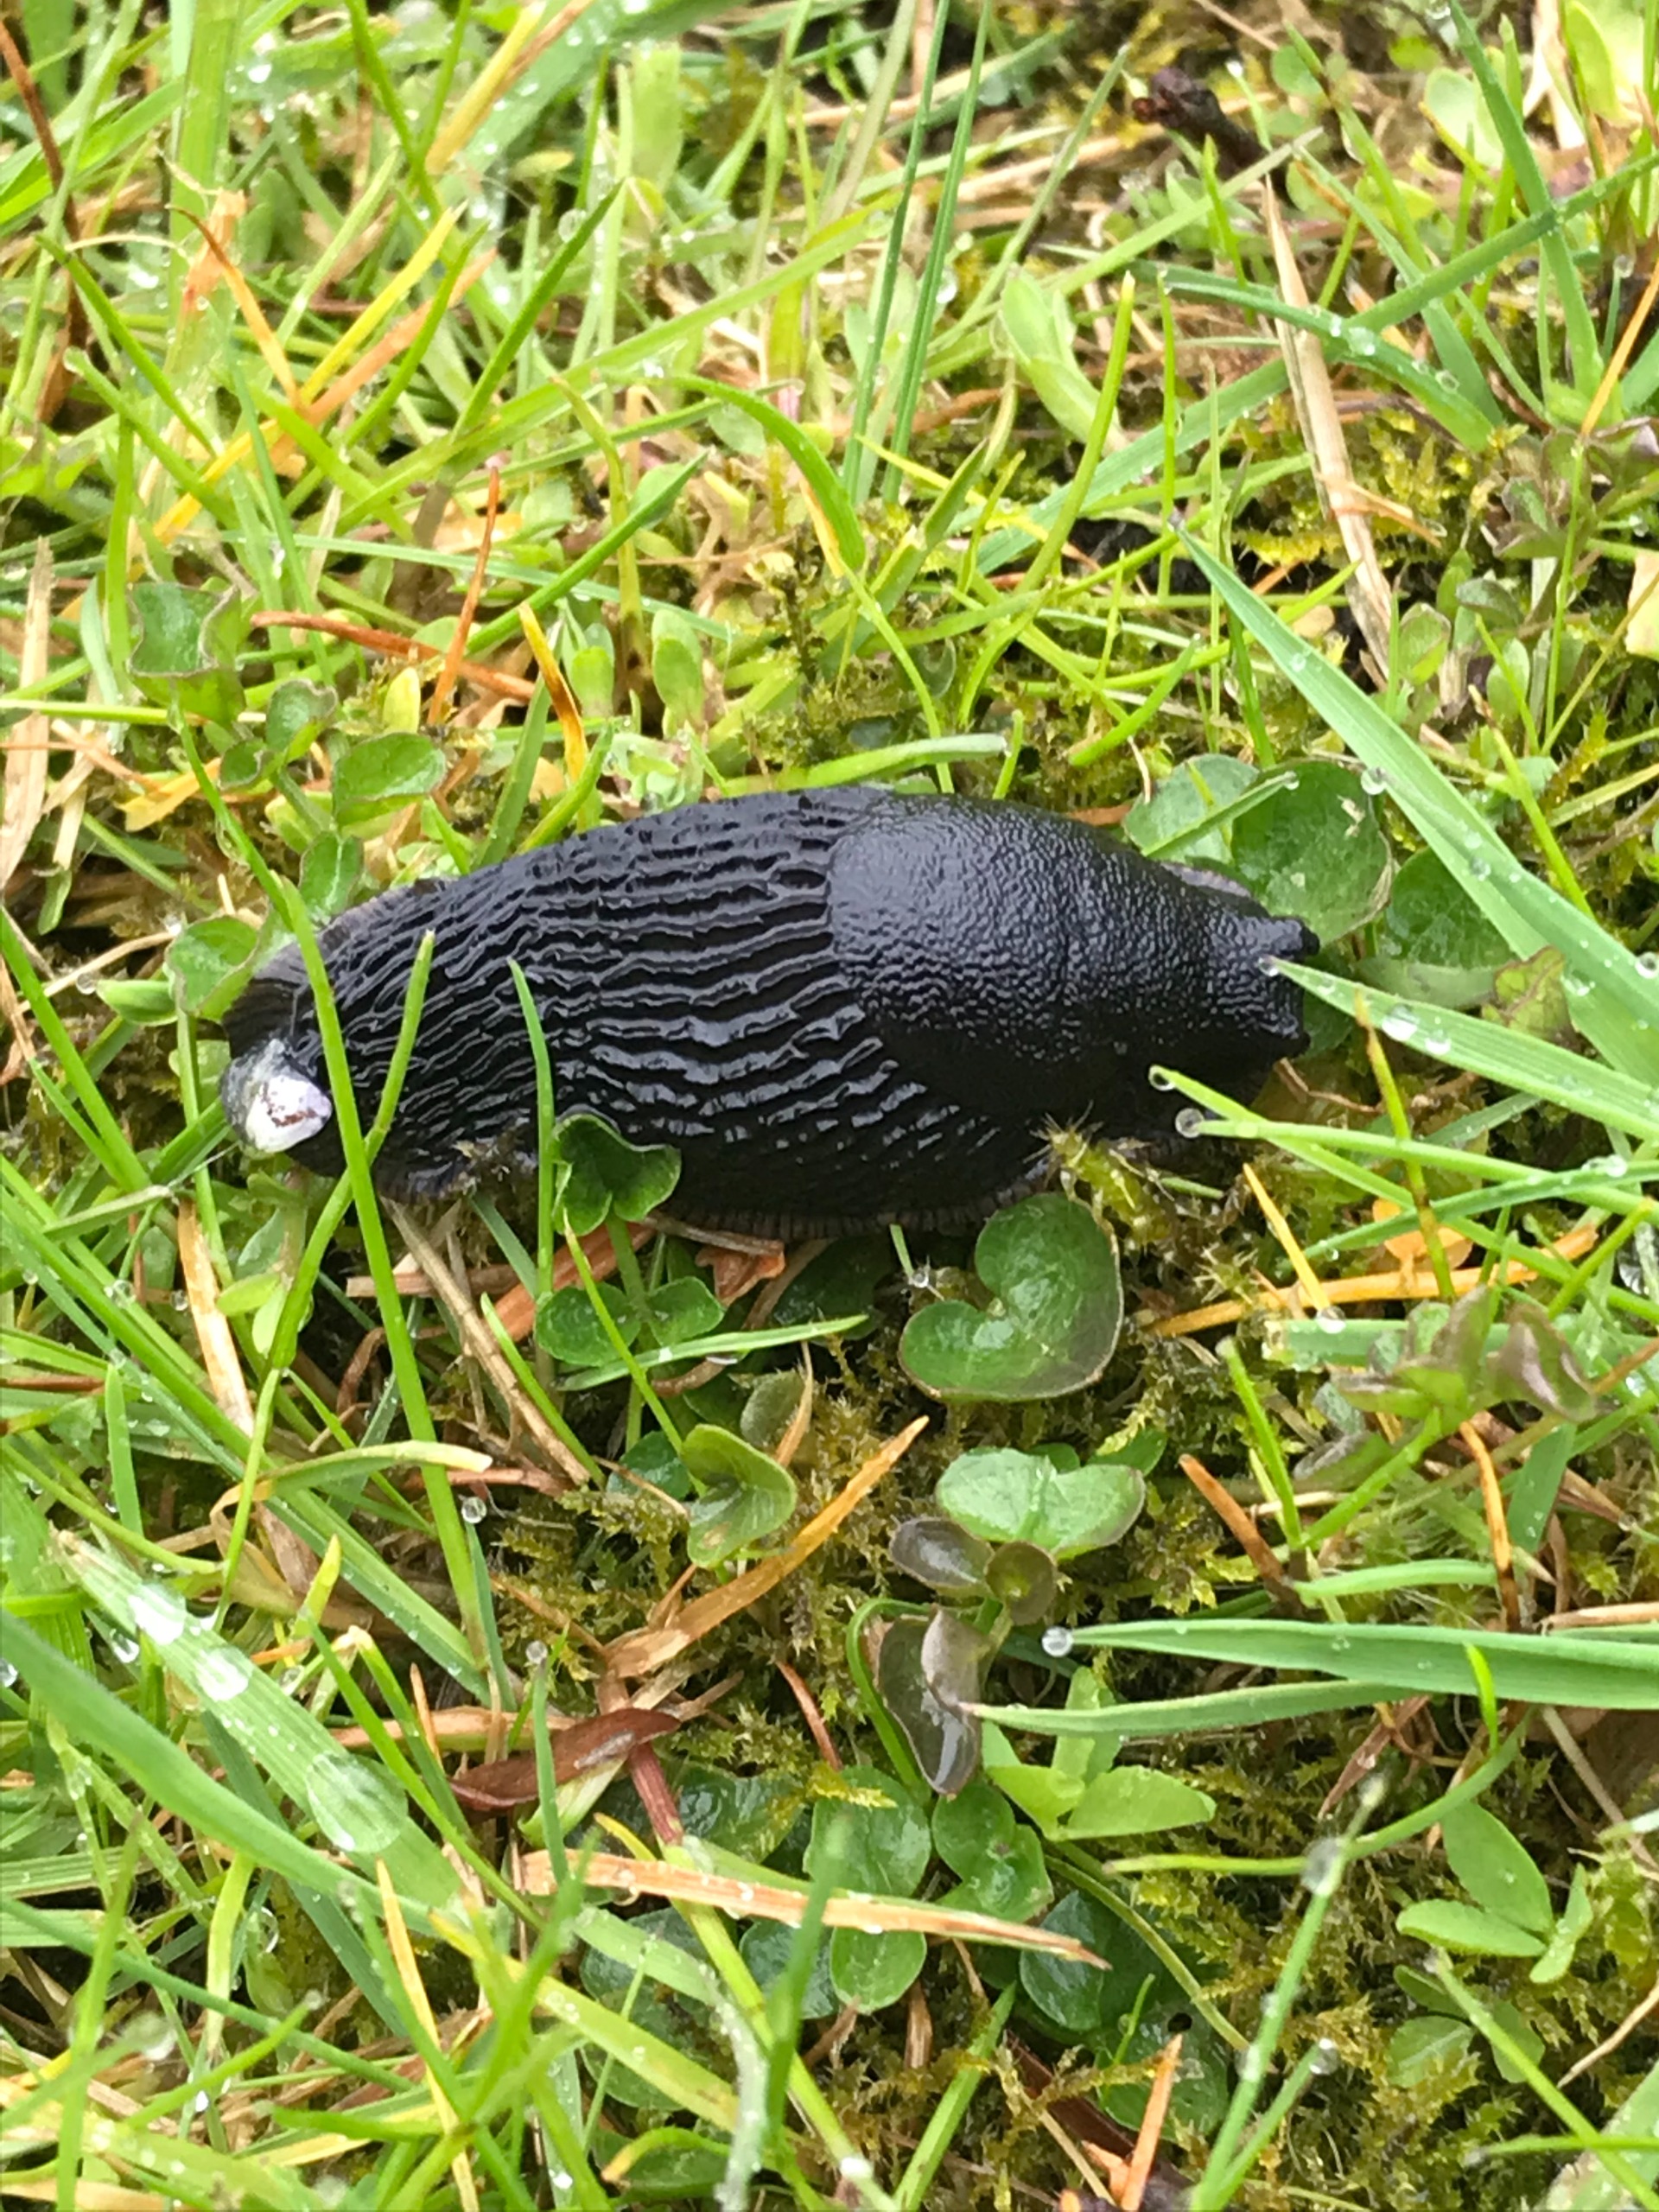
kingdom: Animalia
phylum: Mollusca
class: Gastropoda
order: Stylommatophora
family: Arionidae
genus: Arion
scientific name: Arion ater
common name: Sort skovsnegl
